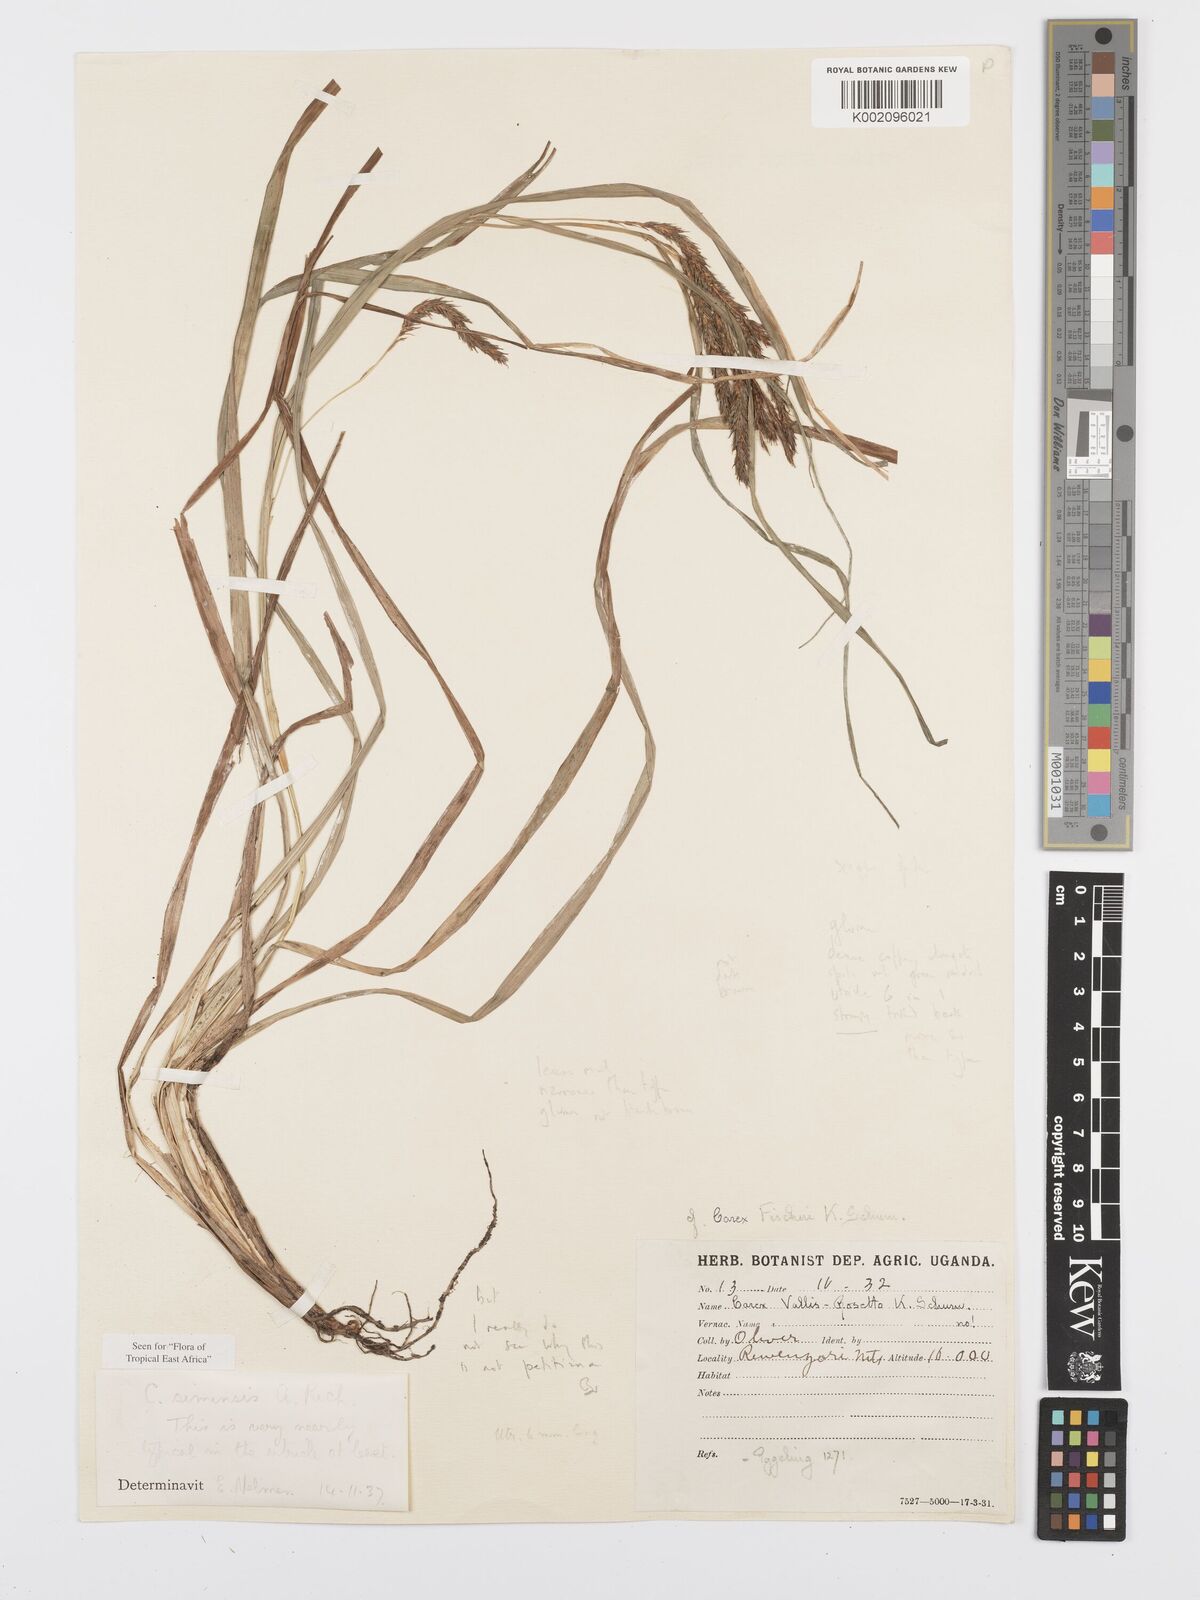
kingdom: Plantae
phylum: Tracheophyta
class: Liliopsida
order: Poales
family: Cyperaceae
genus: Carex
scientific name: Carex simensis
